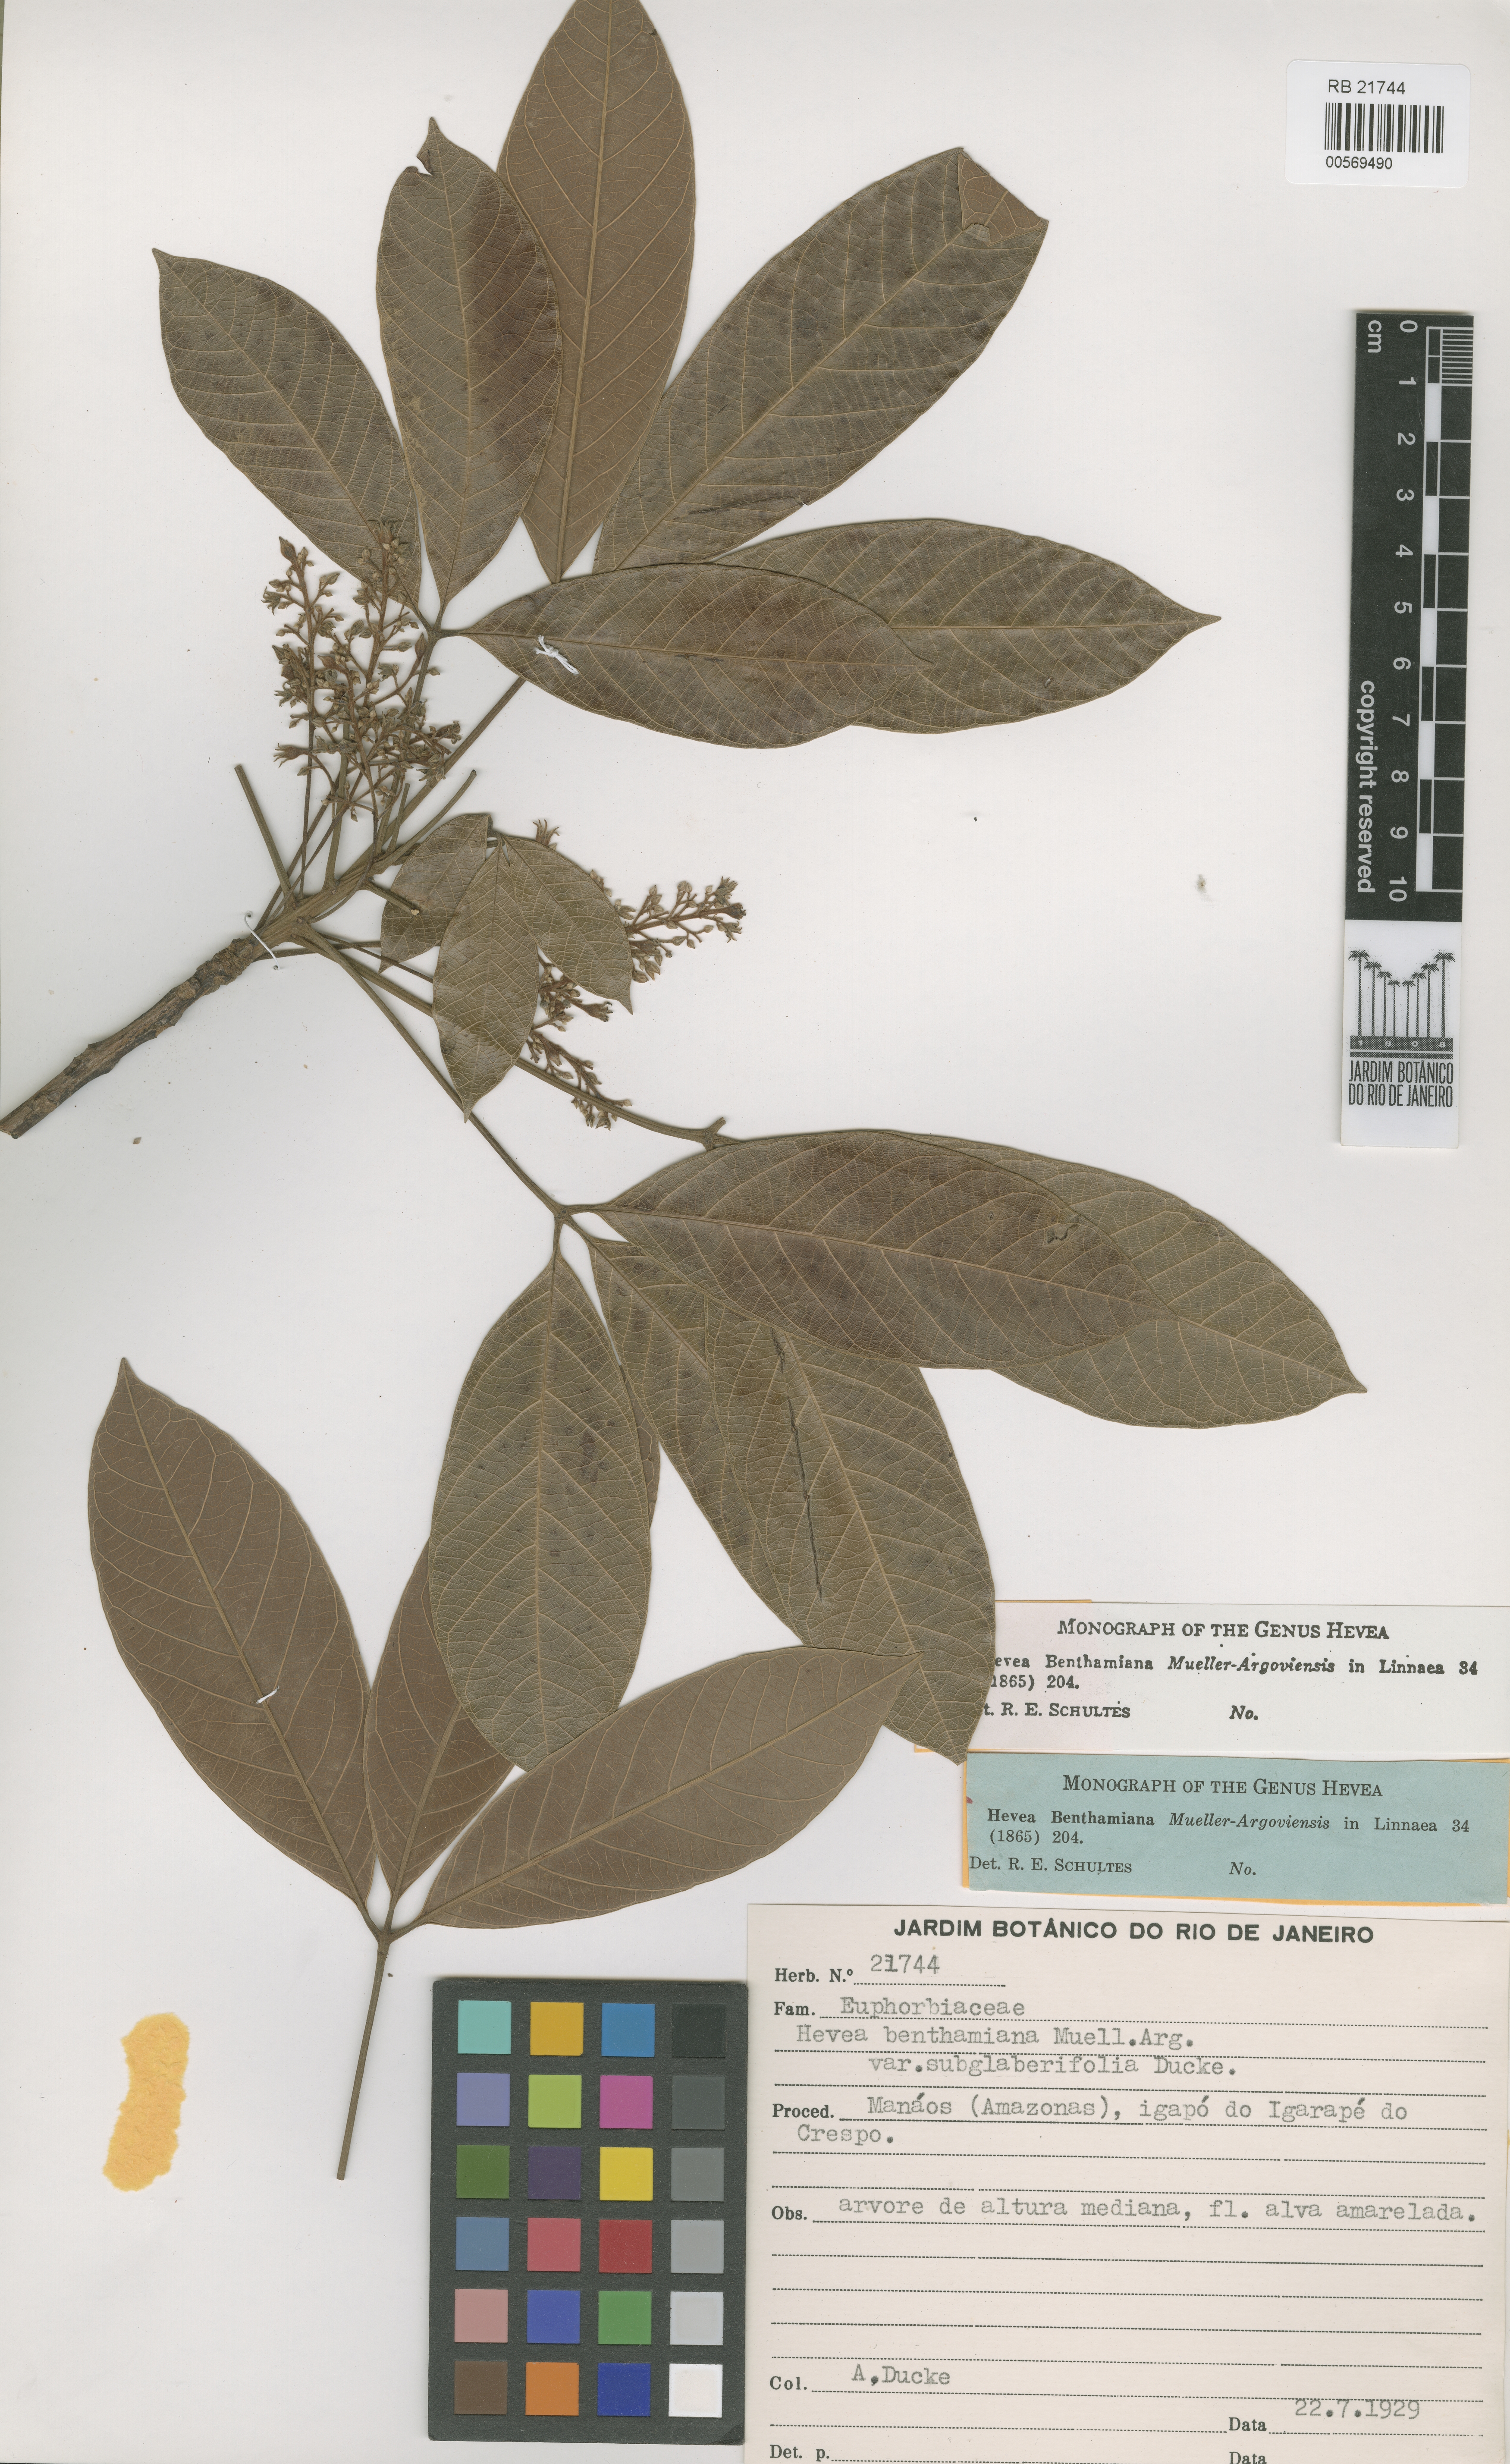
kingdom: Plantae
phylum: Tracheophyta
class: Magnoliopsida
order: Malpighiales
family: Euphorbiaceae
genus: Hevea
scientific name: Hevea benthamiana
